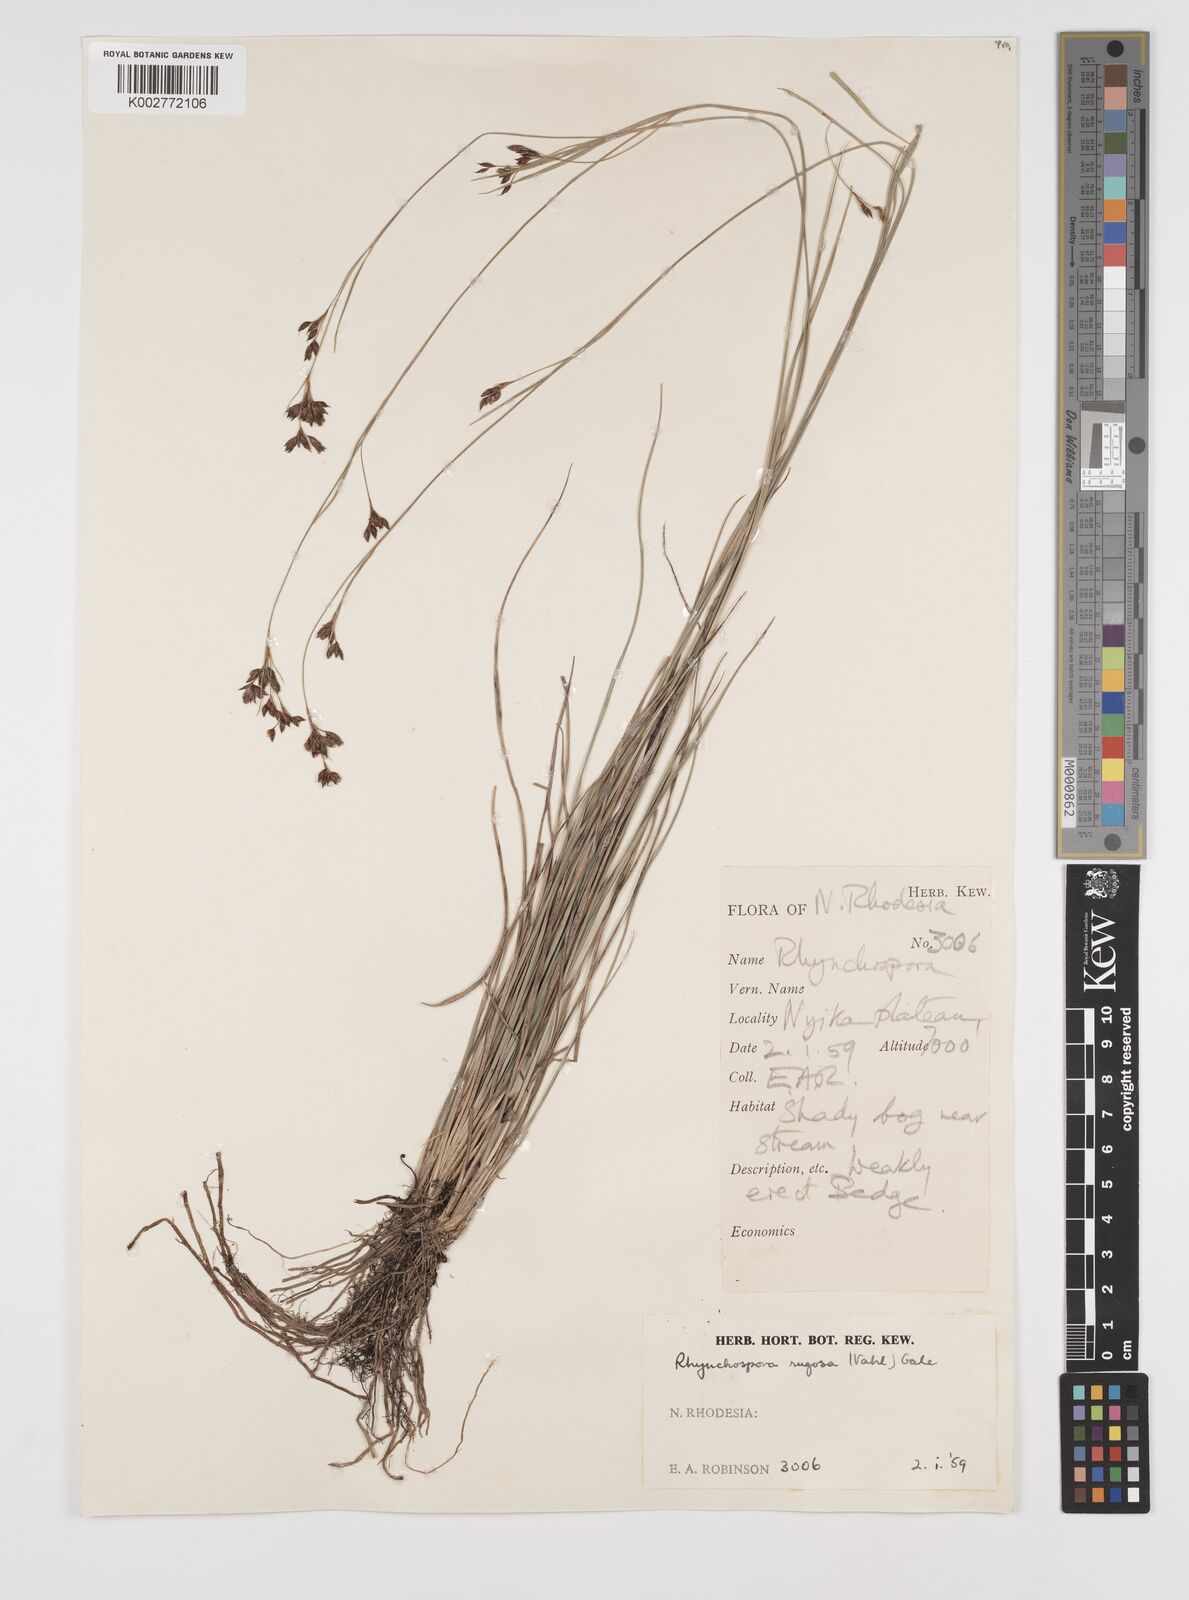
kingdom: Plantae
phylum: Tracheophyta
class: Liliopsida
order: Poales
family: Cyperaceae
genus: Rhynchospora
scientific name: Rhynchospora rugosa
